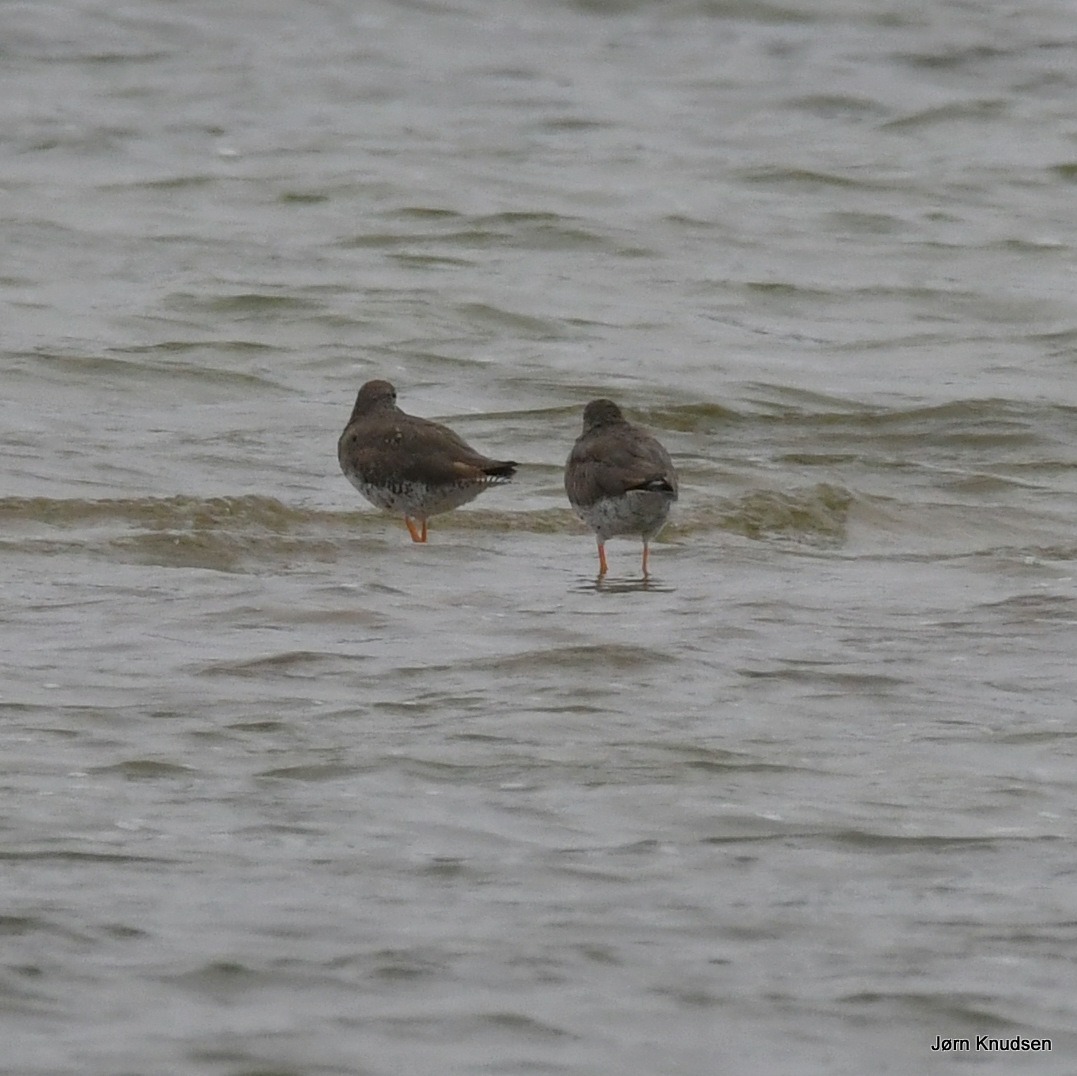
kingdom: Animalia
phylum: Chordata
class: Aves
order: Charadriiformes
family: Scolopacidae
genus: Tringa
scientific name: Tringa totanus
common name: Rødben
